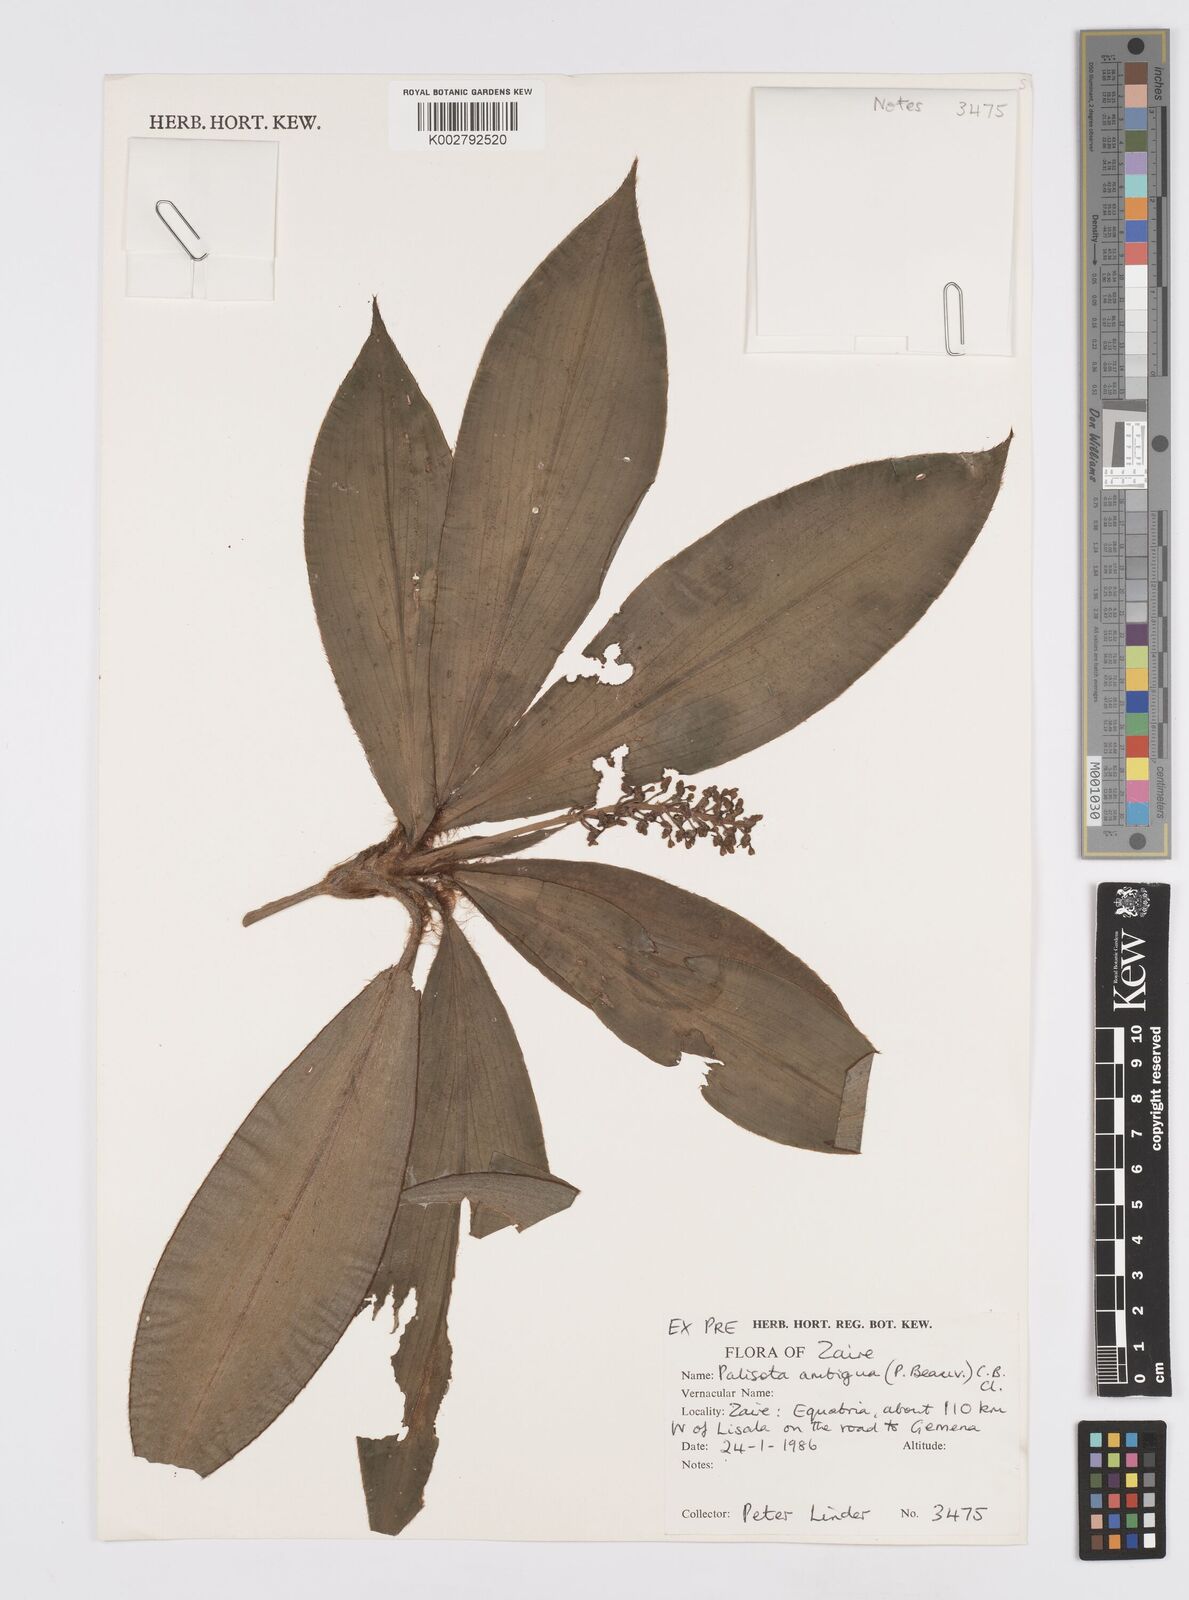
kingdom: Plantae
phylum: Tracheophyta
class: Liliopsida
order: Commelinales
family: Commelinaceae
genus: Palisota
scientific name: Palisota ambigua
